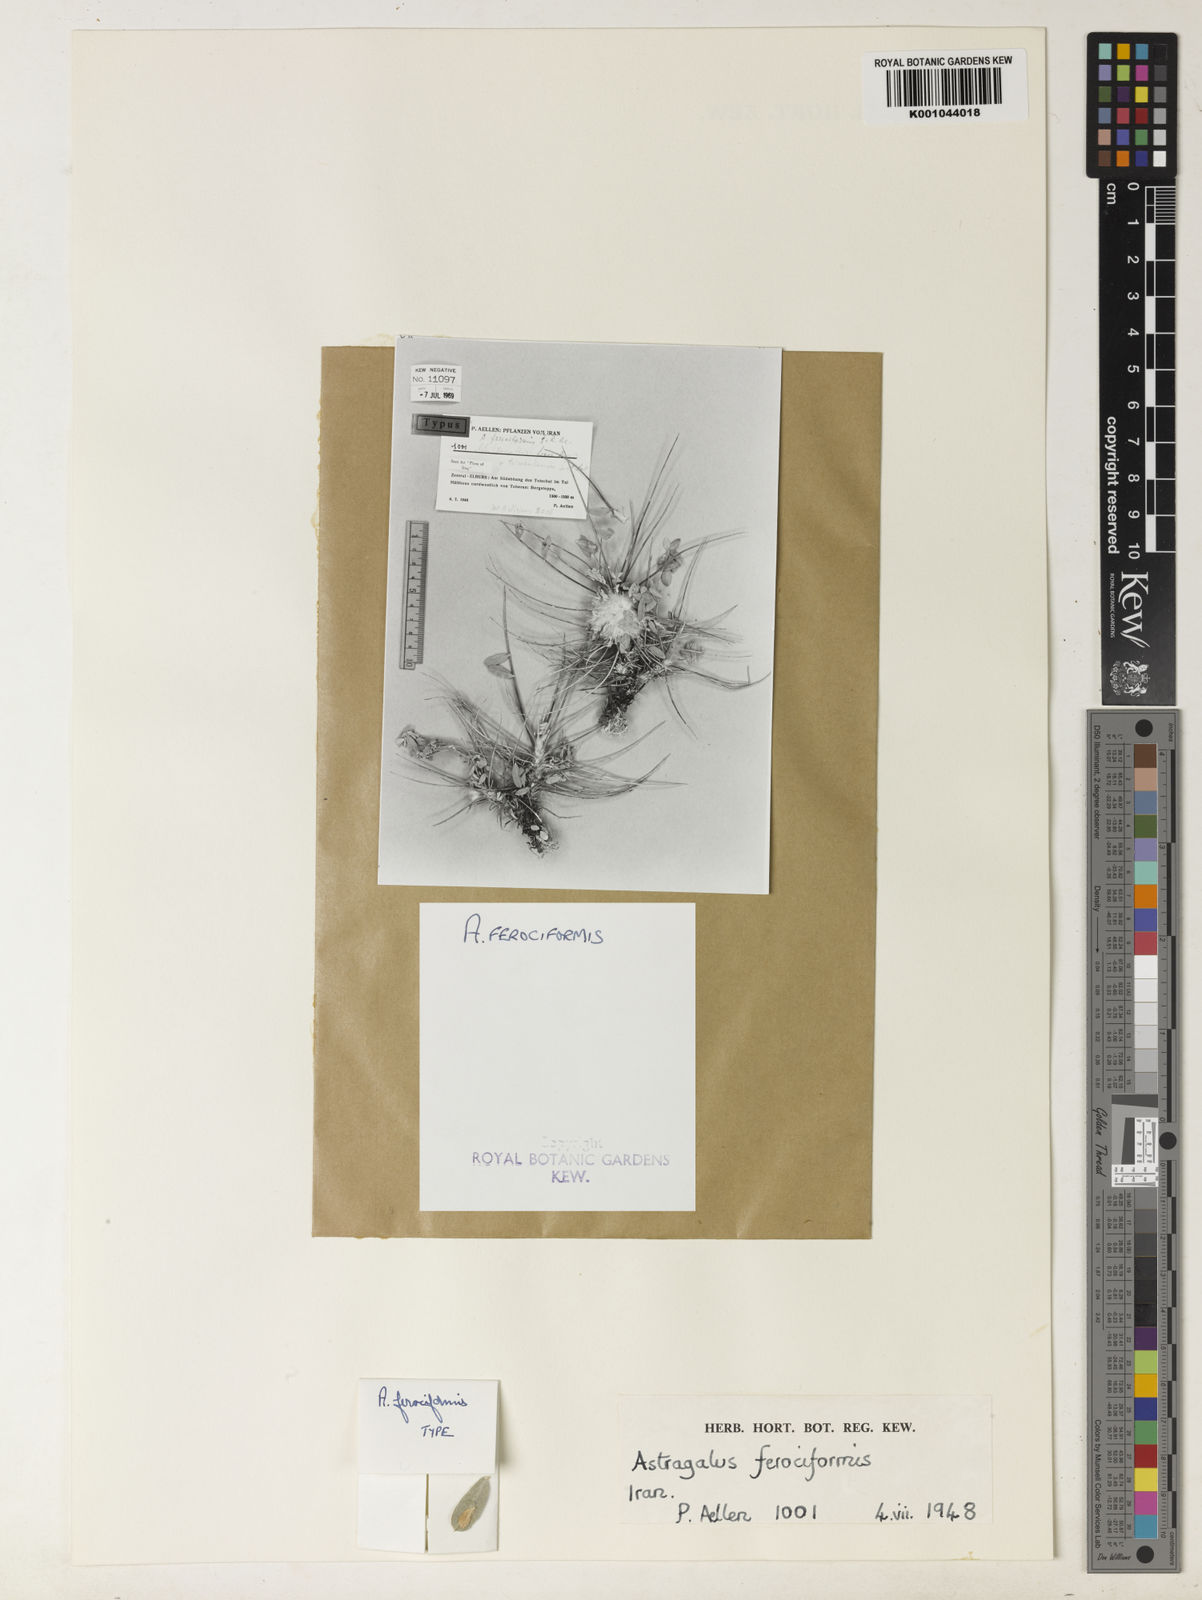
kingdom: Plantae
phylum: Tracheophyta
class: Magnoliopsida
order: Fabales
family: Fabaceae
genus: Astragalus
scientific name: Astragalus
